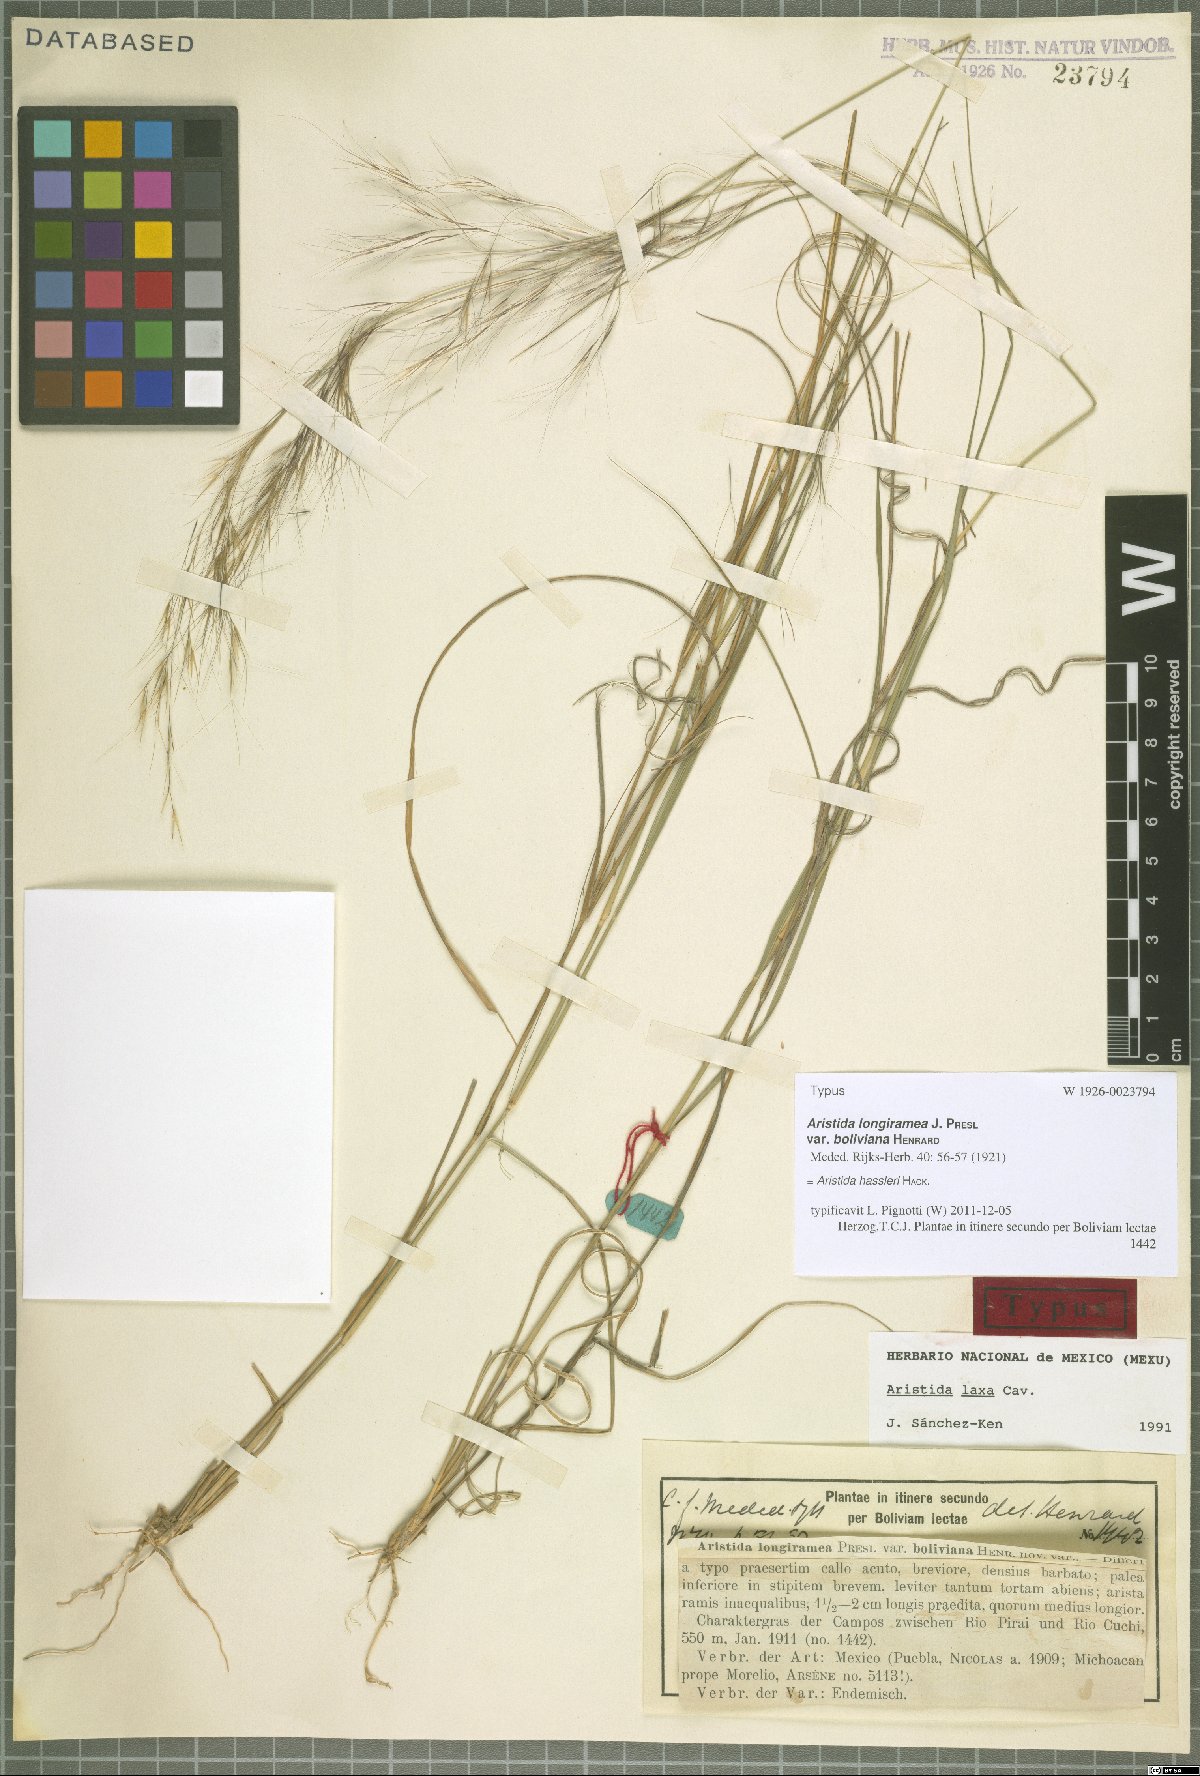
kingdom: Plantae
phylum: Tracheophyta
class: Liliopsida
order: Poales
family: Poaceae
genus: Aristida
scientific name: Aristida hassleri
